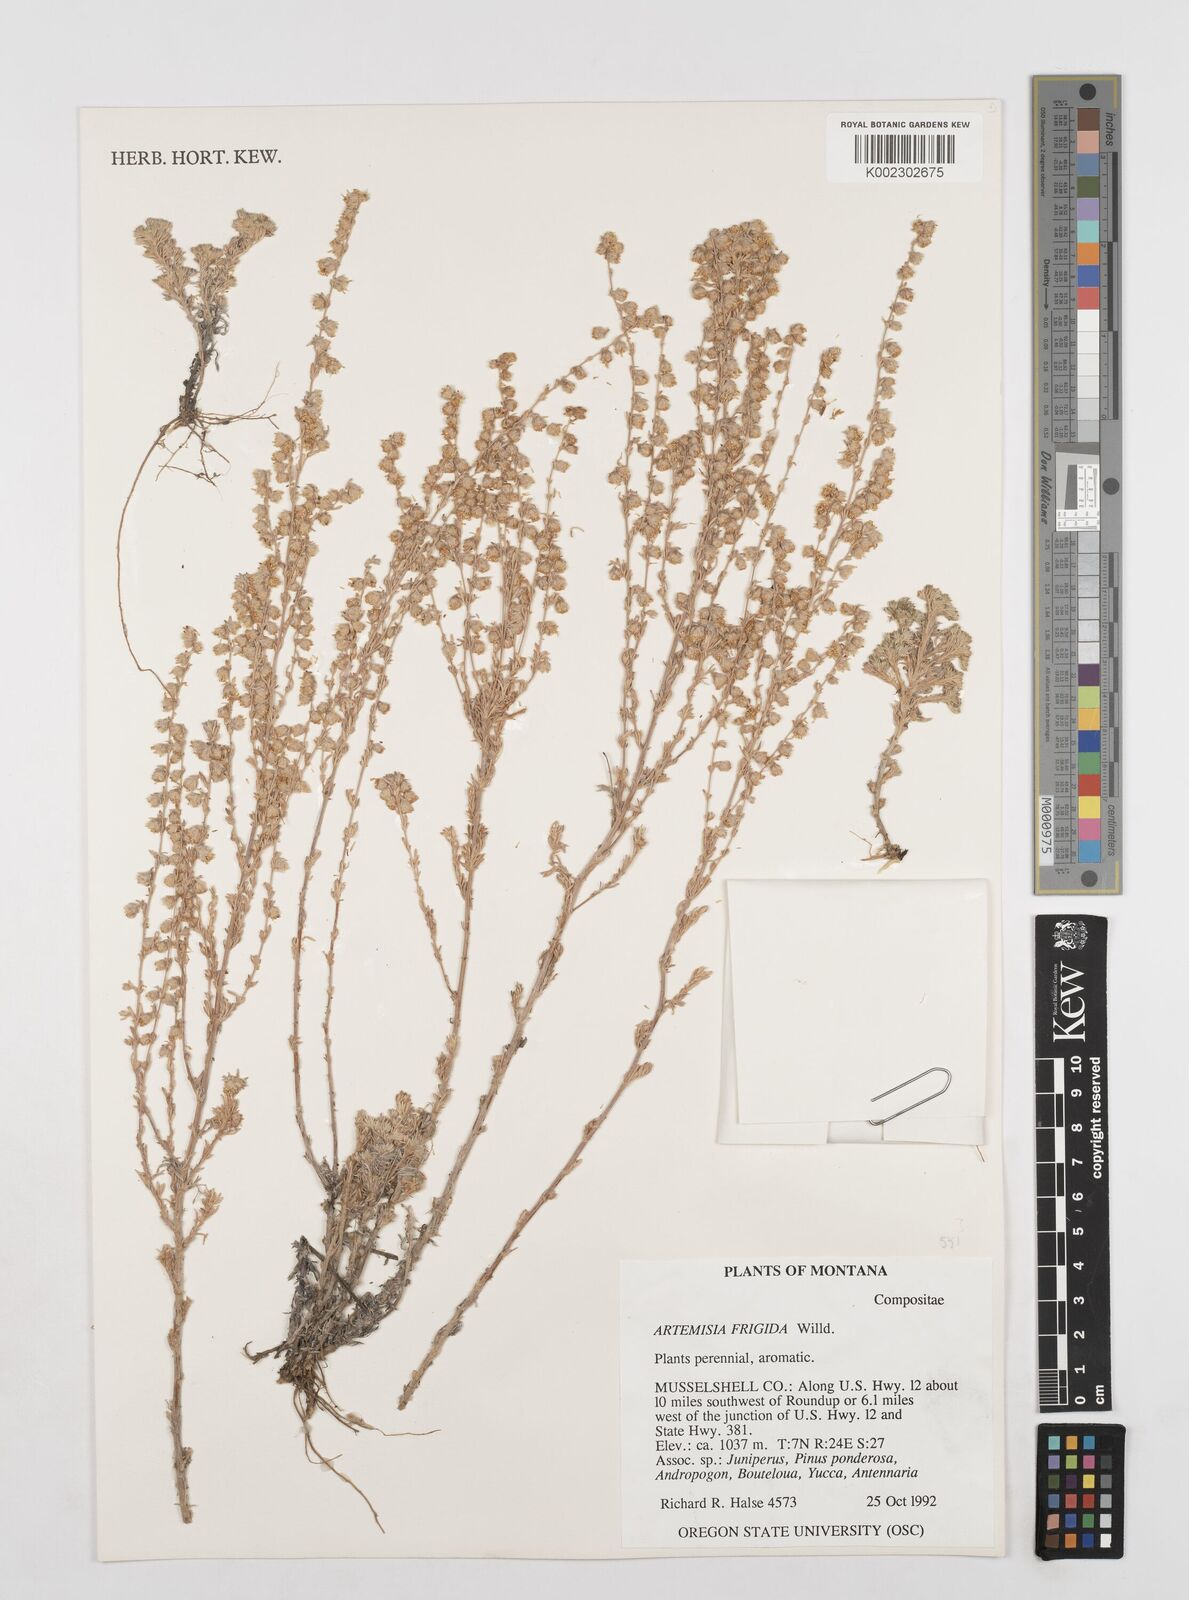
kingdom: Plantae
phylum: Tracheophyta
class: Magnoliopsida
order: Asterales
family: Asteraceae
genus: Artemisia
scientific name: Artemisia frigida
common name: Prairie sagewort
